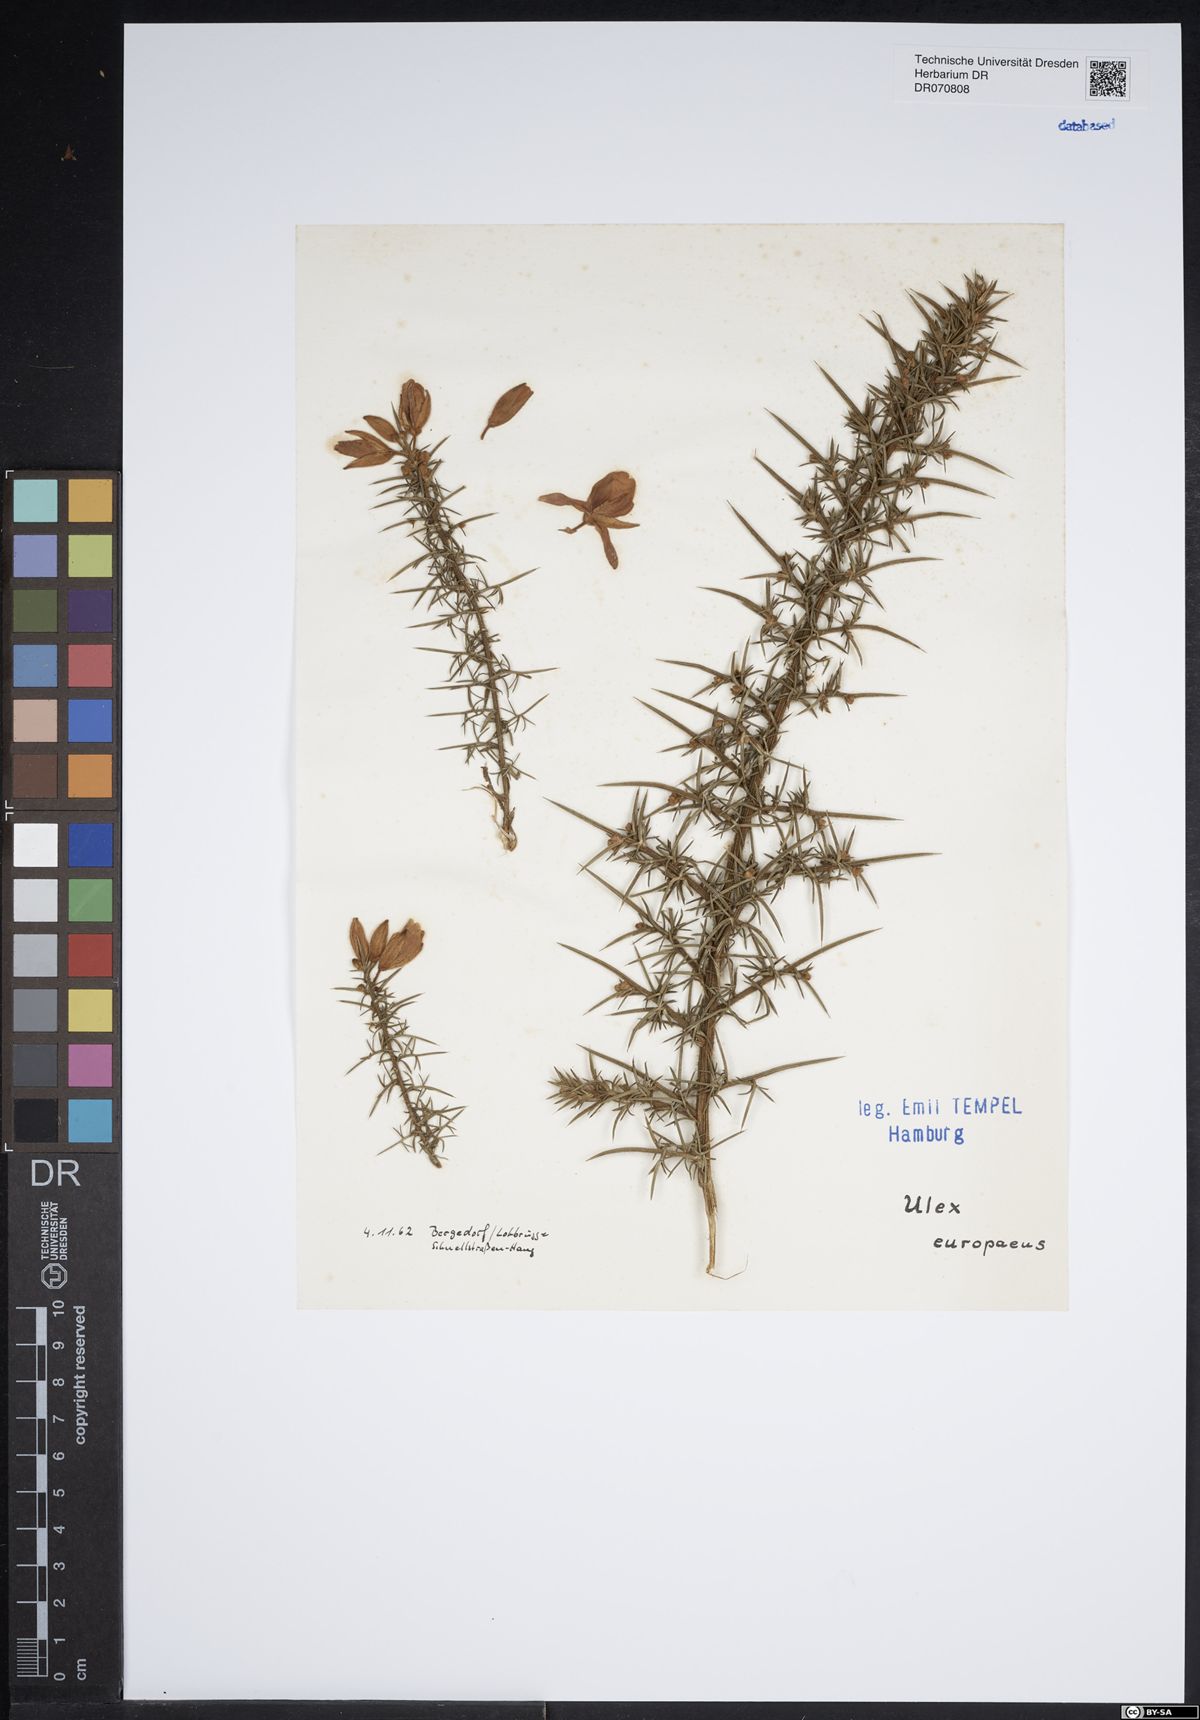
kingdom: Plantae
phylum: Tracheophyta
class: Magnoliopsida
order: Fabales
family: Fabaceae
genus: Ulex
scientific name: Ulex europaeus
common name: Common gorse
